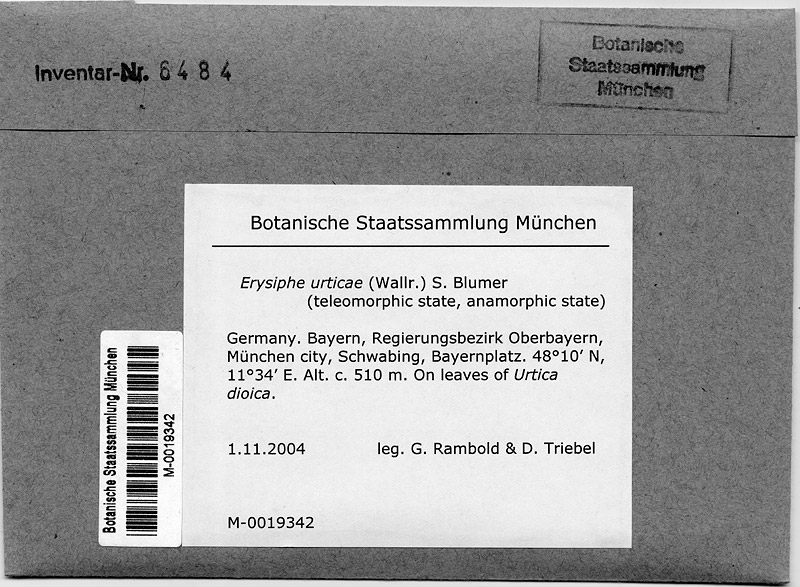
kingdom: Fungi
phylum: Ascomycota
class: Leotiomycetes
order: Helotiales
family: Erysiphaceae
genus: Erysiphe
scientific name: Erysiphe urticae
